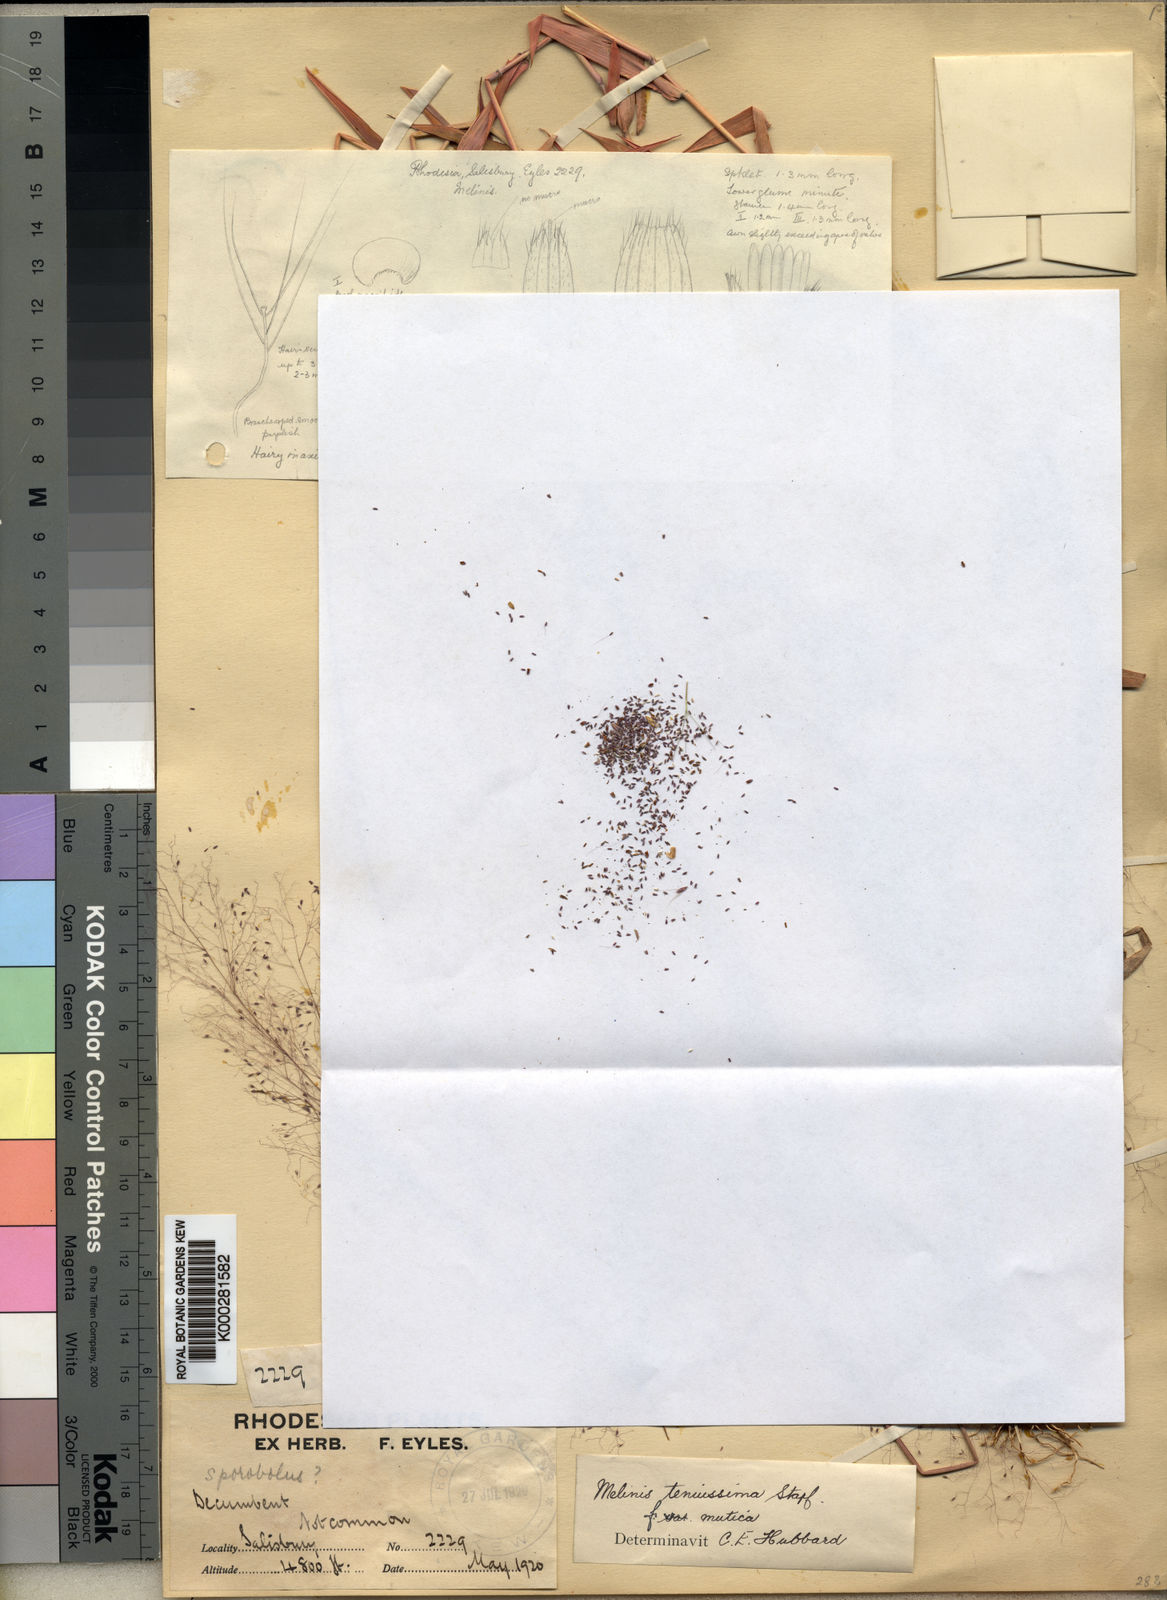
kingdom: Plantae
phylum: Tracheophyta
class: Liliopsida
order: Poales
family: Poaceae
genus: Melinis
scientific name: Melinis tenuissima
